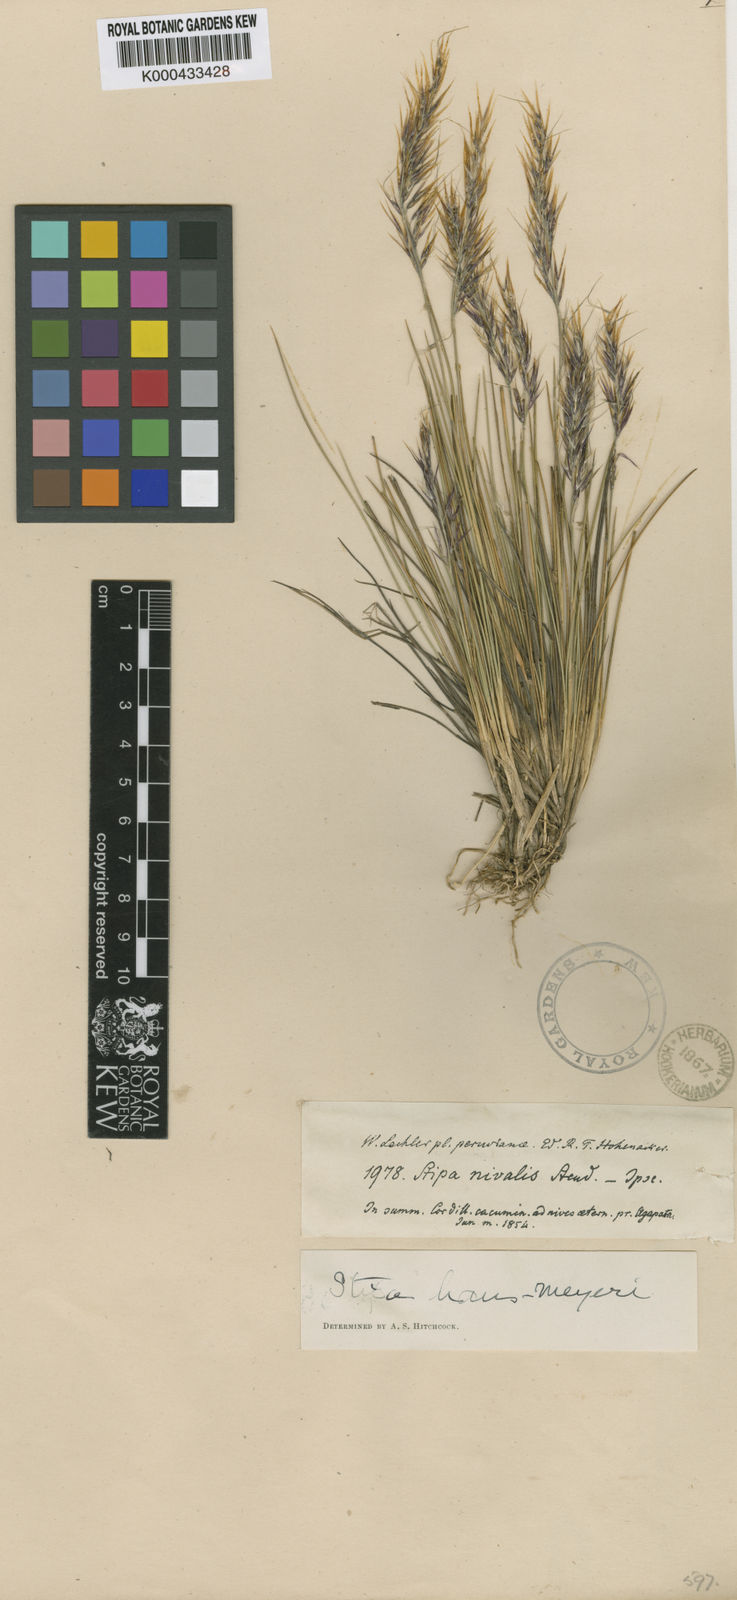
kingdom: Plantae
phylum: Tracheophyta
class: Liliopsida
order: Poales
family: Poaceae
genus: Stipa
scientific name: Stipa hans-meyeri
